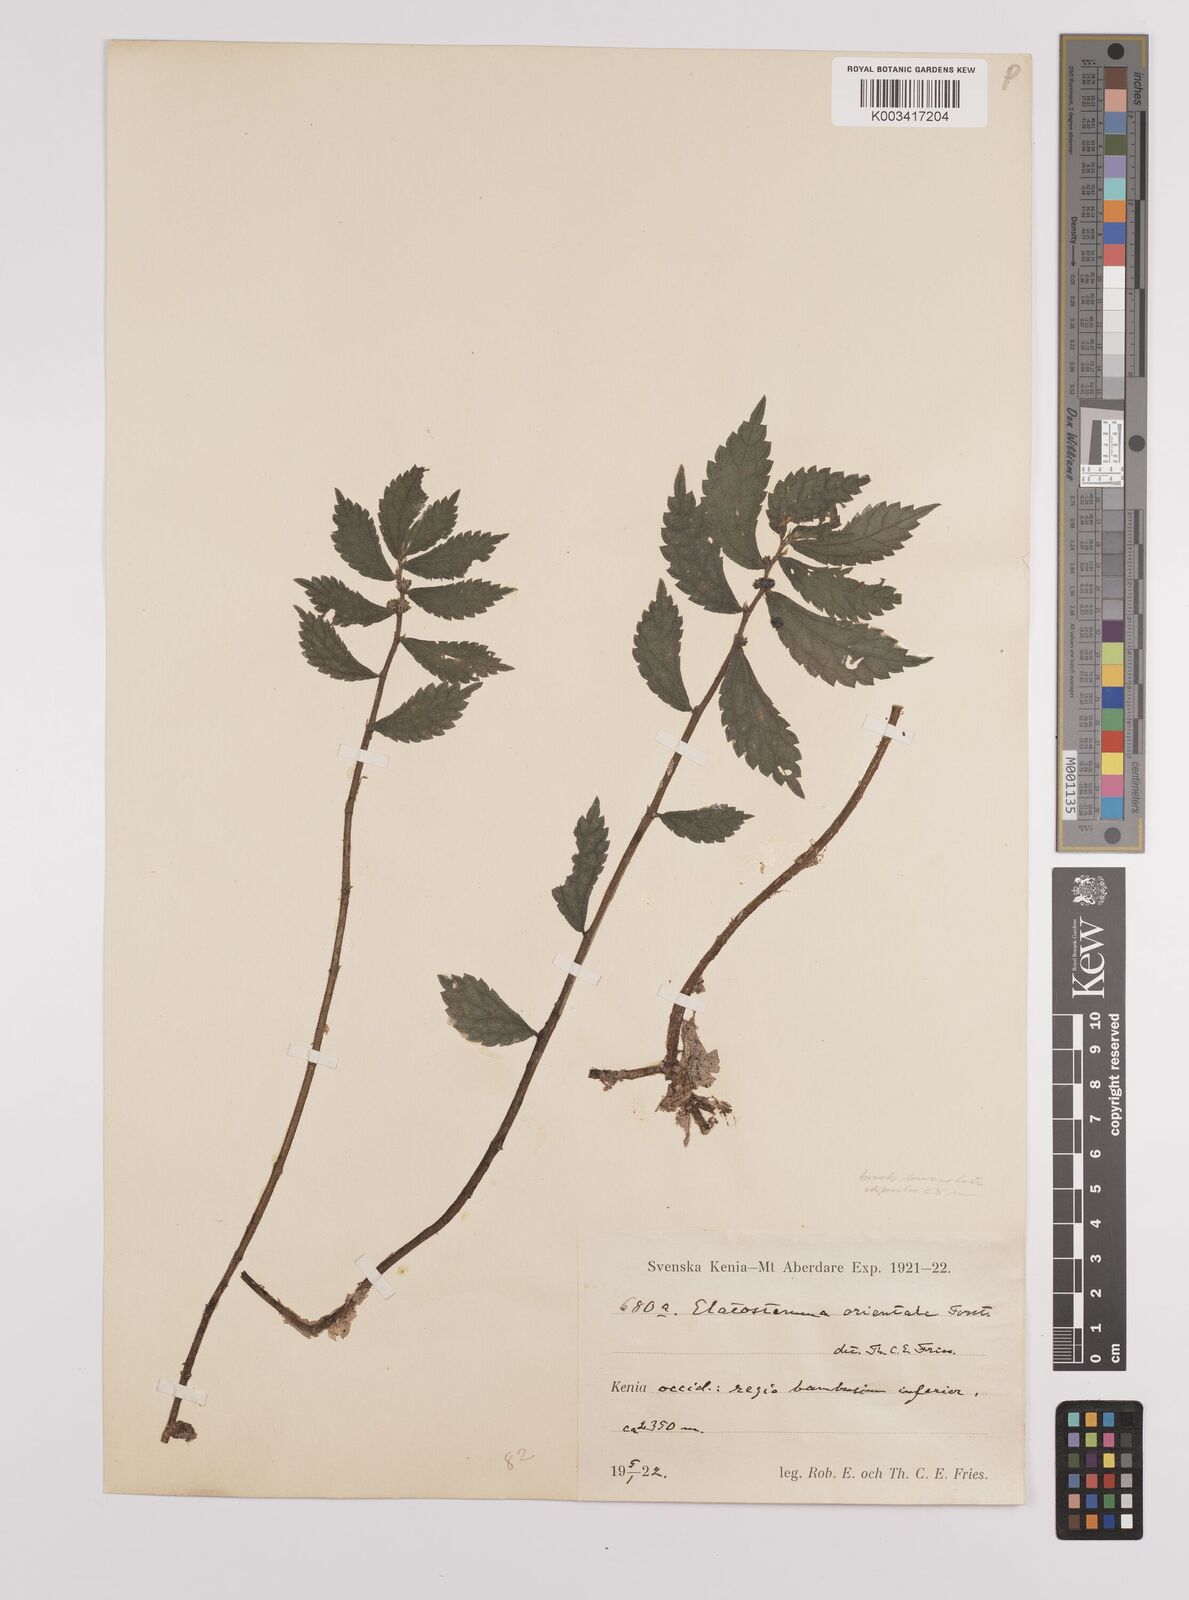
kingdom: Plantae
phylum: Tracheophyta
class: Magnoliopsida
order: Rosales
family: Urticaceae
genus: Elatostema
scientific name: Elatostema monticola
